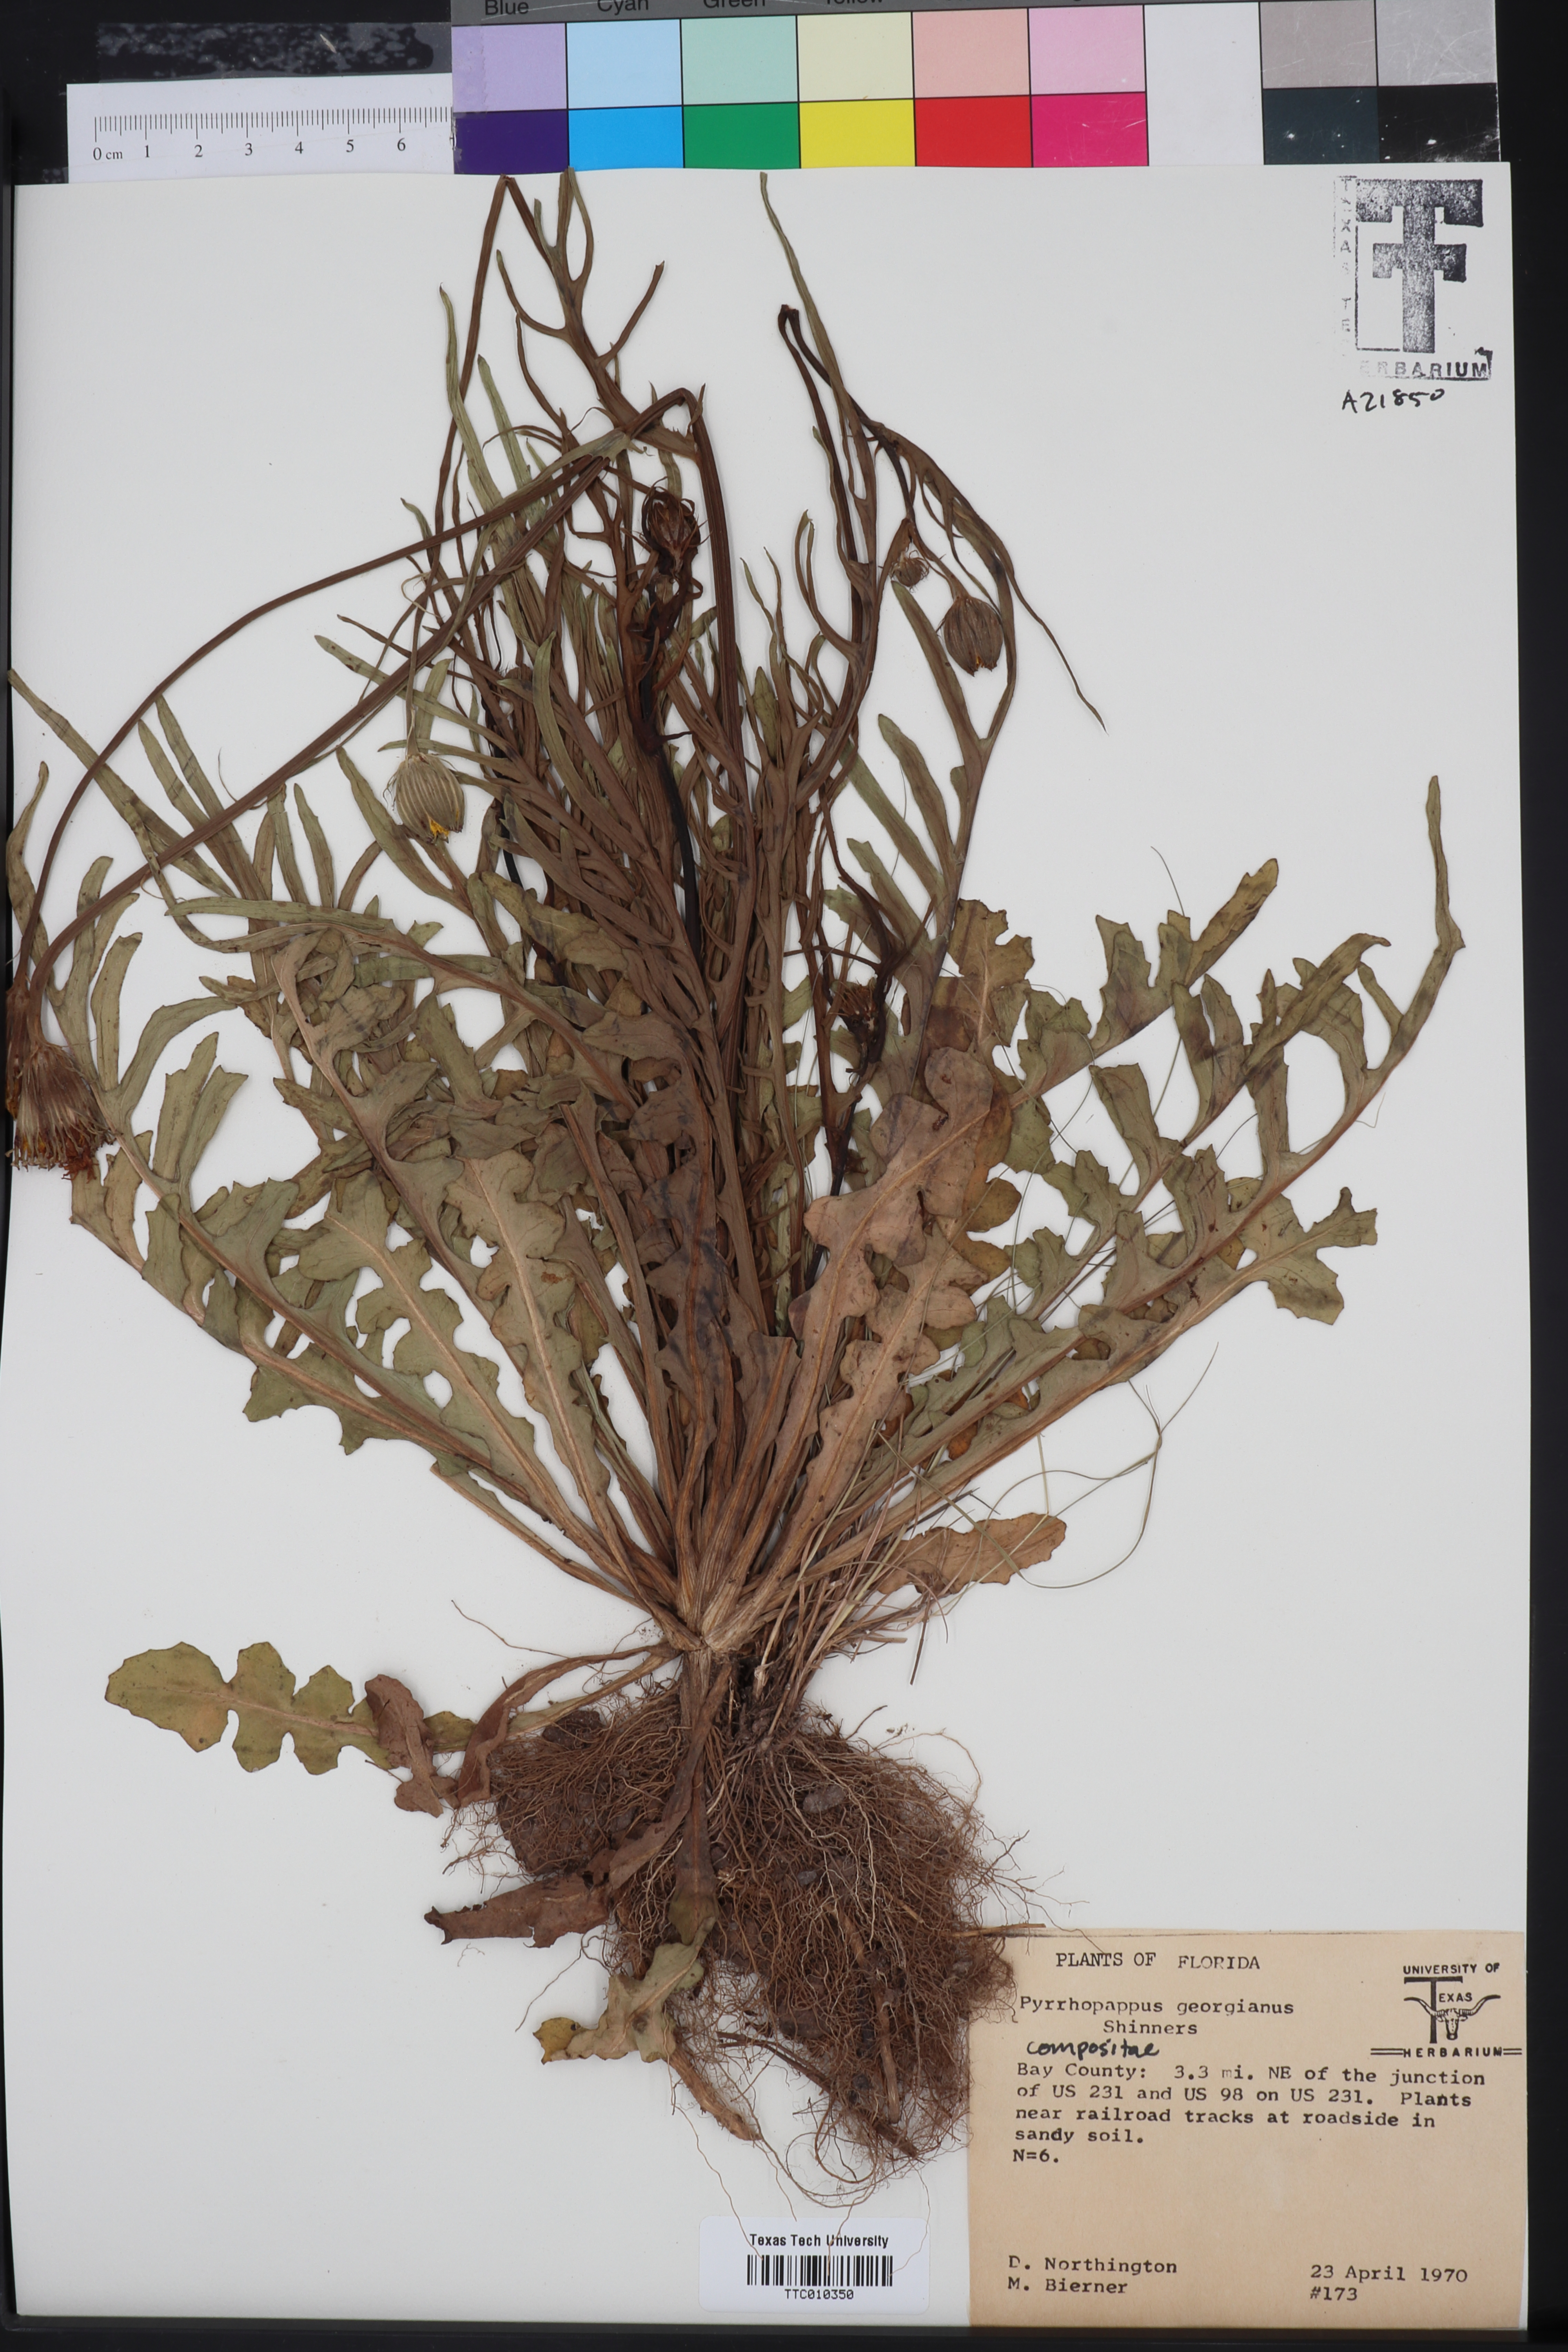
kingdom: Plantae
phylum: Tracheophyta
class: Magnoliopsida
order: Asterales
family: Asteraceae
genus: Pyrrhopappus
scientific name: Pyrrhopappus carolinianus
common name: Carolina desert-chicory
